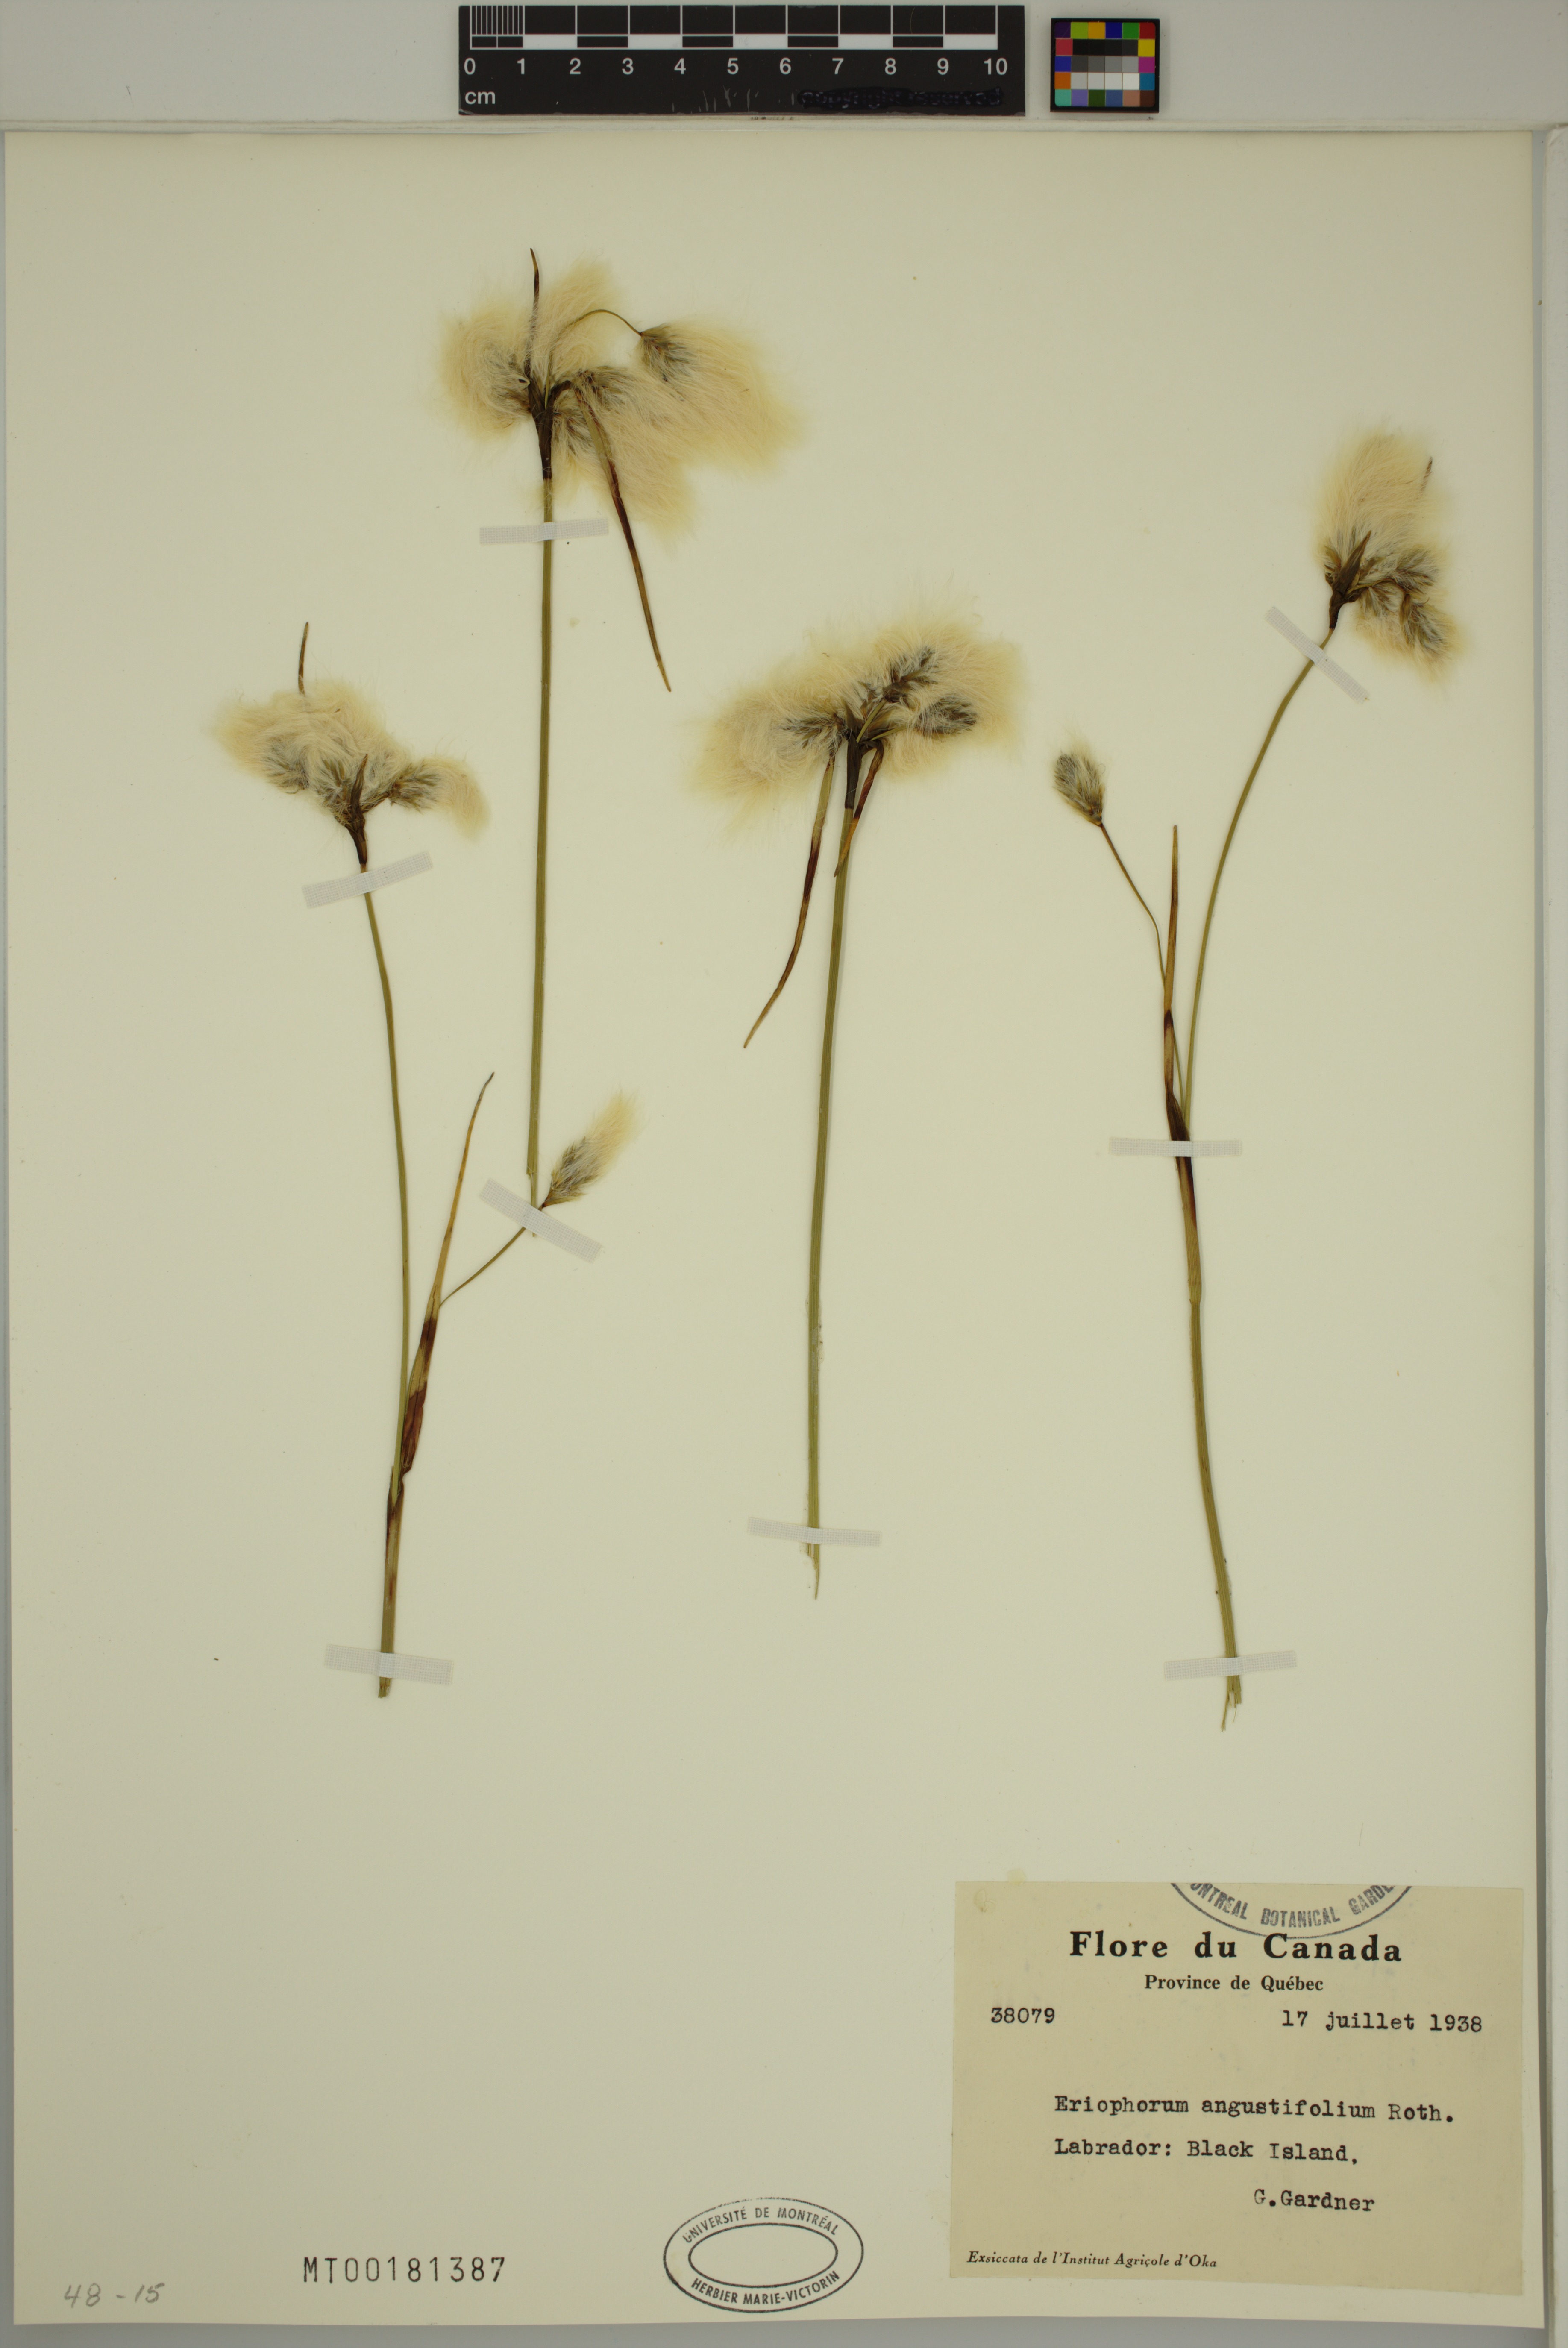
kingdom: Plantae
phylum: Tracheophyta
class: Liliopsida
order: Poales
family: Cyperaceae
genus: Eriophorum
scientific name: Eriophorum angustifolium
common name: Common cottongrass
